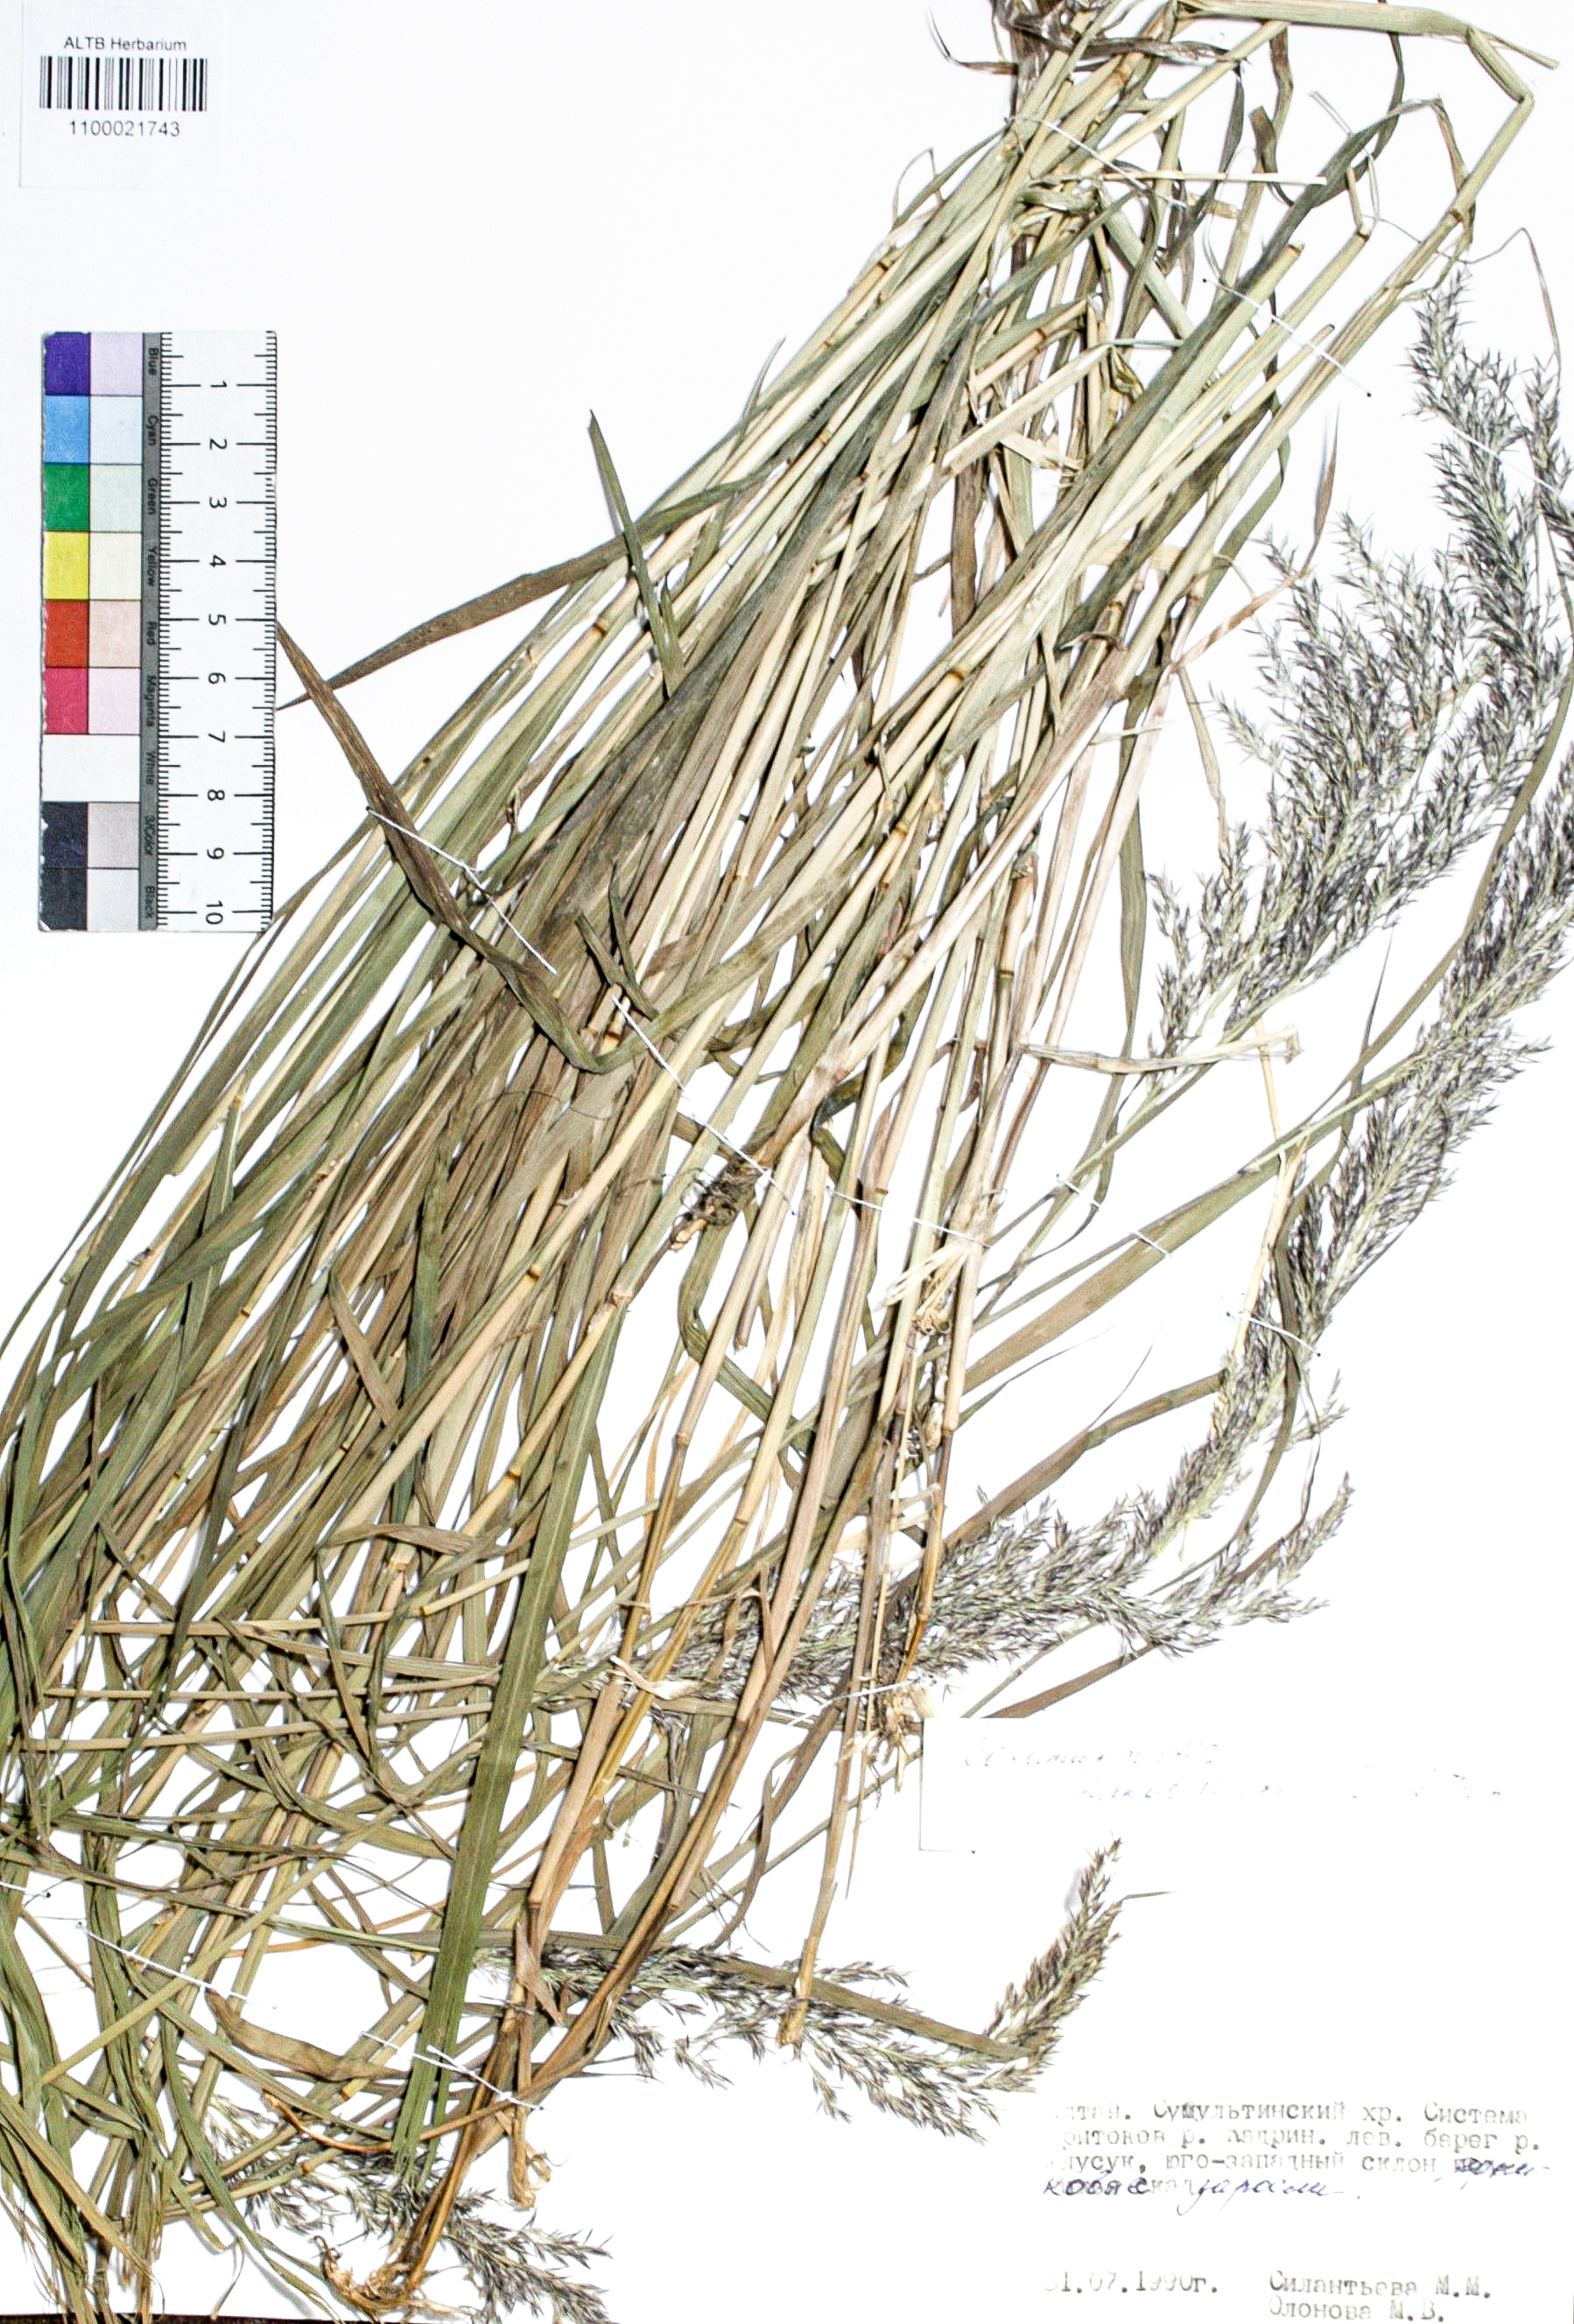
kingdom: Plantae
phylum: Tracheophyta
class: Liliopsida
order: Poales
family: Poaceae
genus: Calamagrostis
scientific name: Calamagrostis purpurea
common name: Scandinavian small-reed
